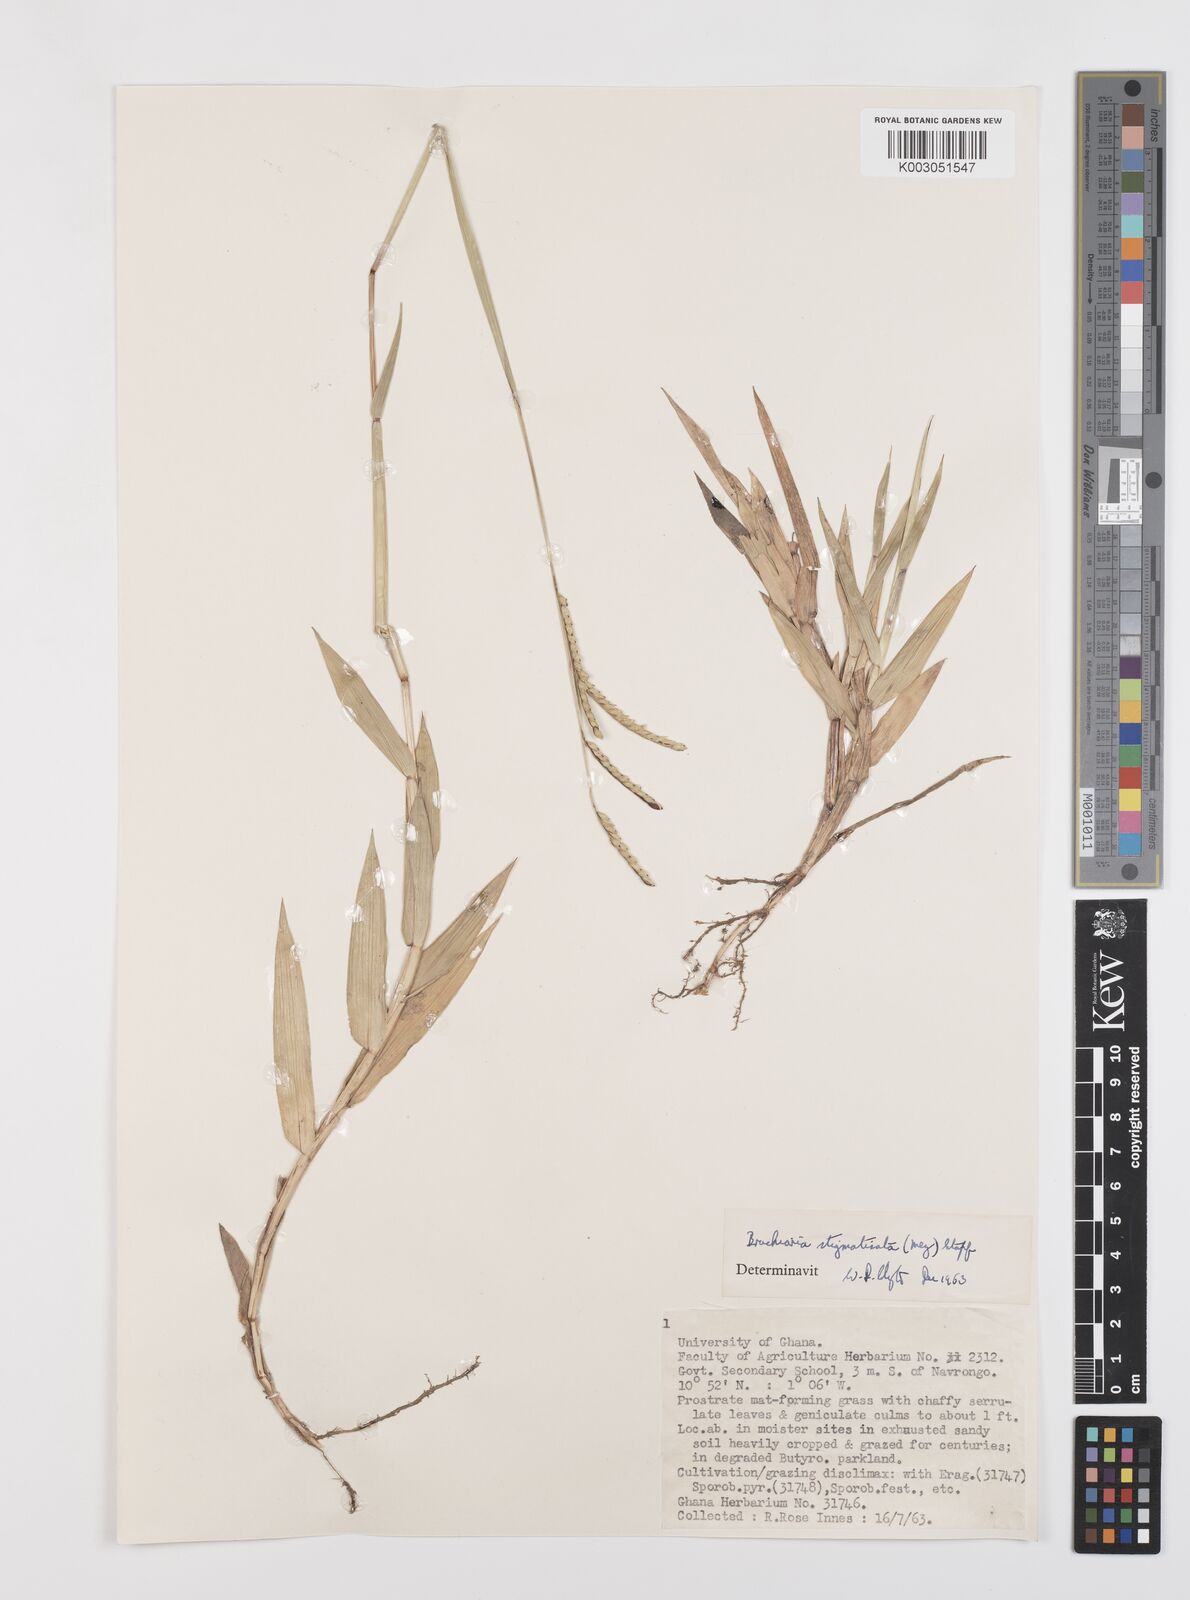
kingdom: Plantae
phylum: Tracheophyta
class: Liliopsida
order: Poales
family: Poaceae
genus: Urochloa
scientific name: Urochloa stigmatisata
